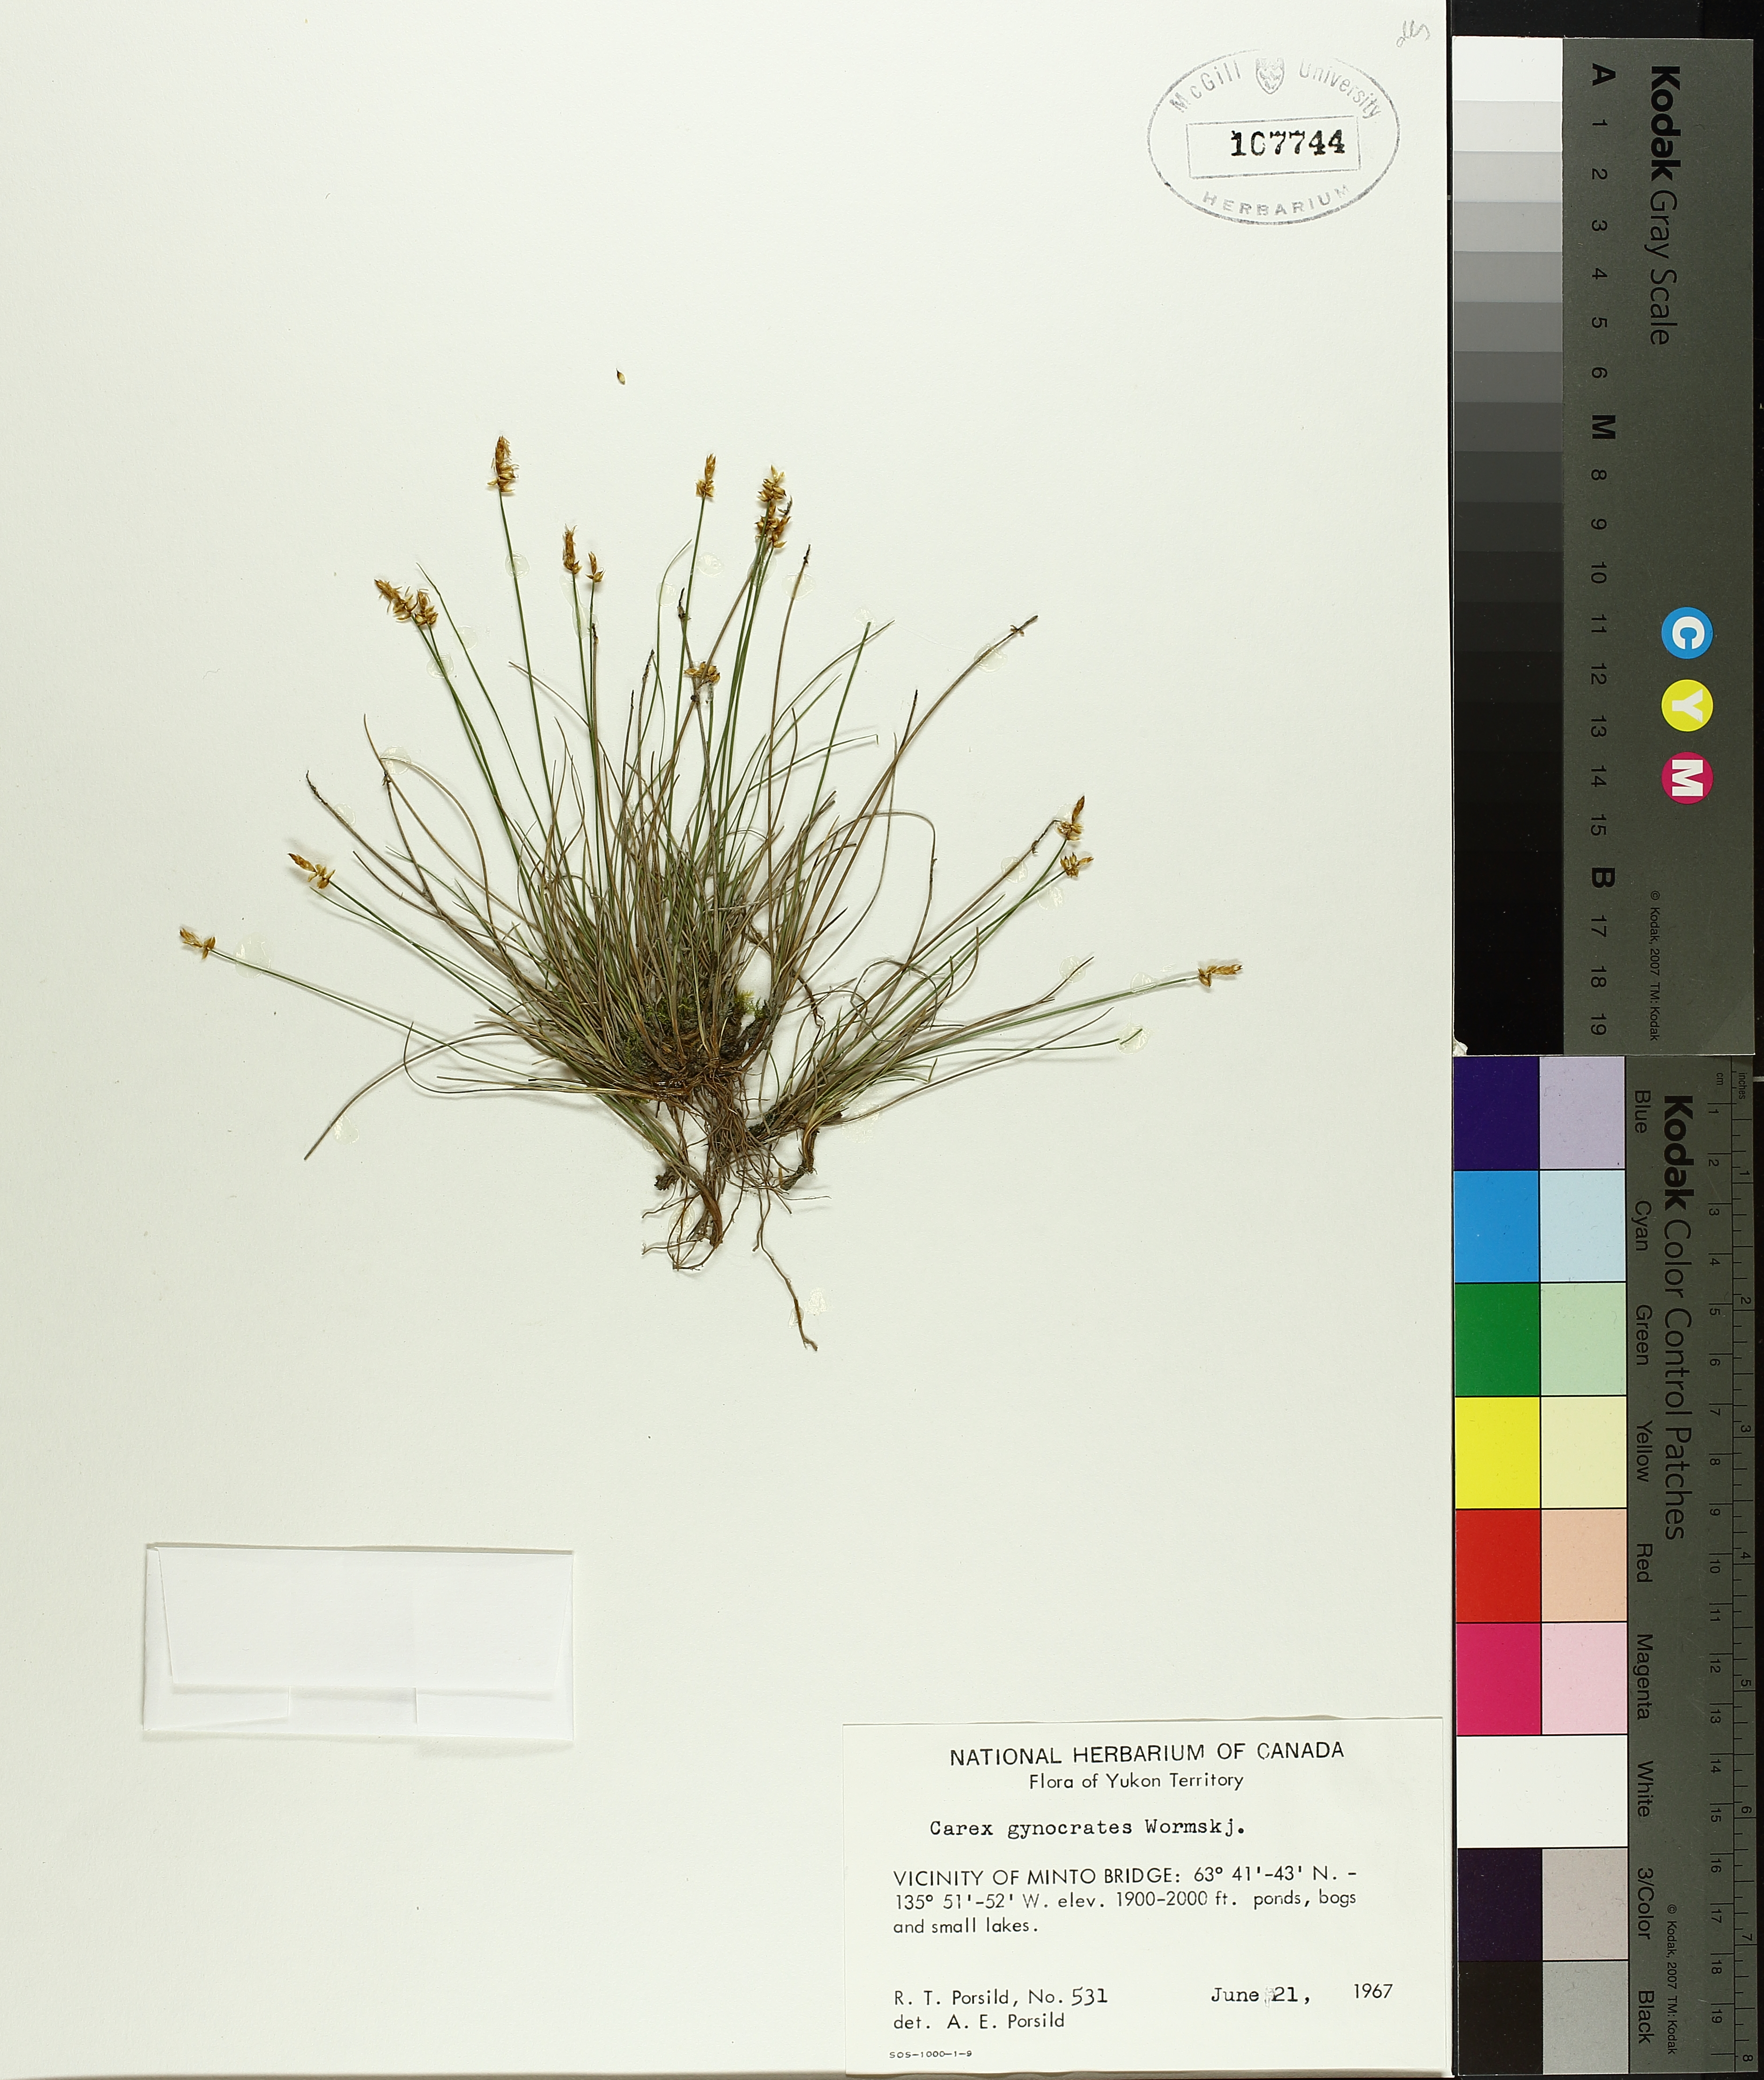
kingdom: Plantae
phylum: Tracheophyta
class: Liliopsida
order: Poales
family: Cyperaceae
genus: Carex
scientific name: Carex gynocrates
